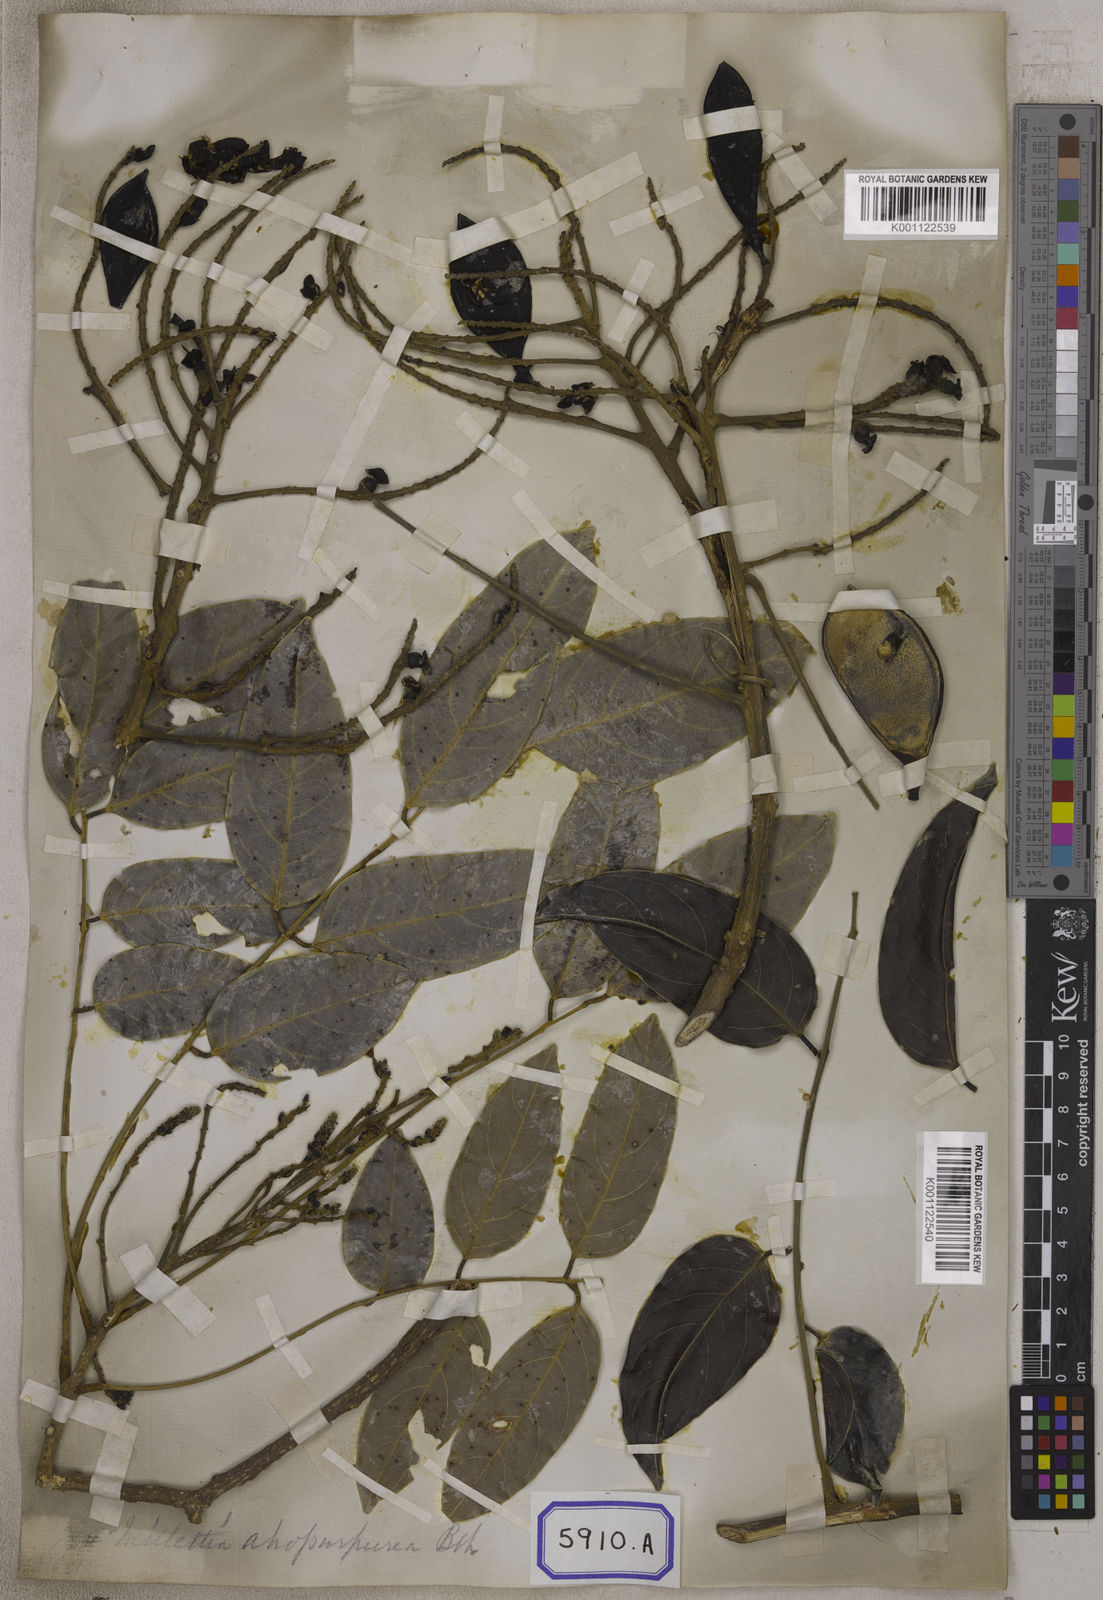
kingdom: Plantae
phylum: Tracheophyta
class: Magnoliopsida
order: Fabales
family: Fabaceae
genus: Adinobotrys
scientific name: Adinobotrys atropurpureus
